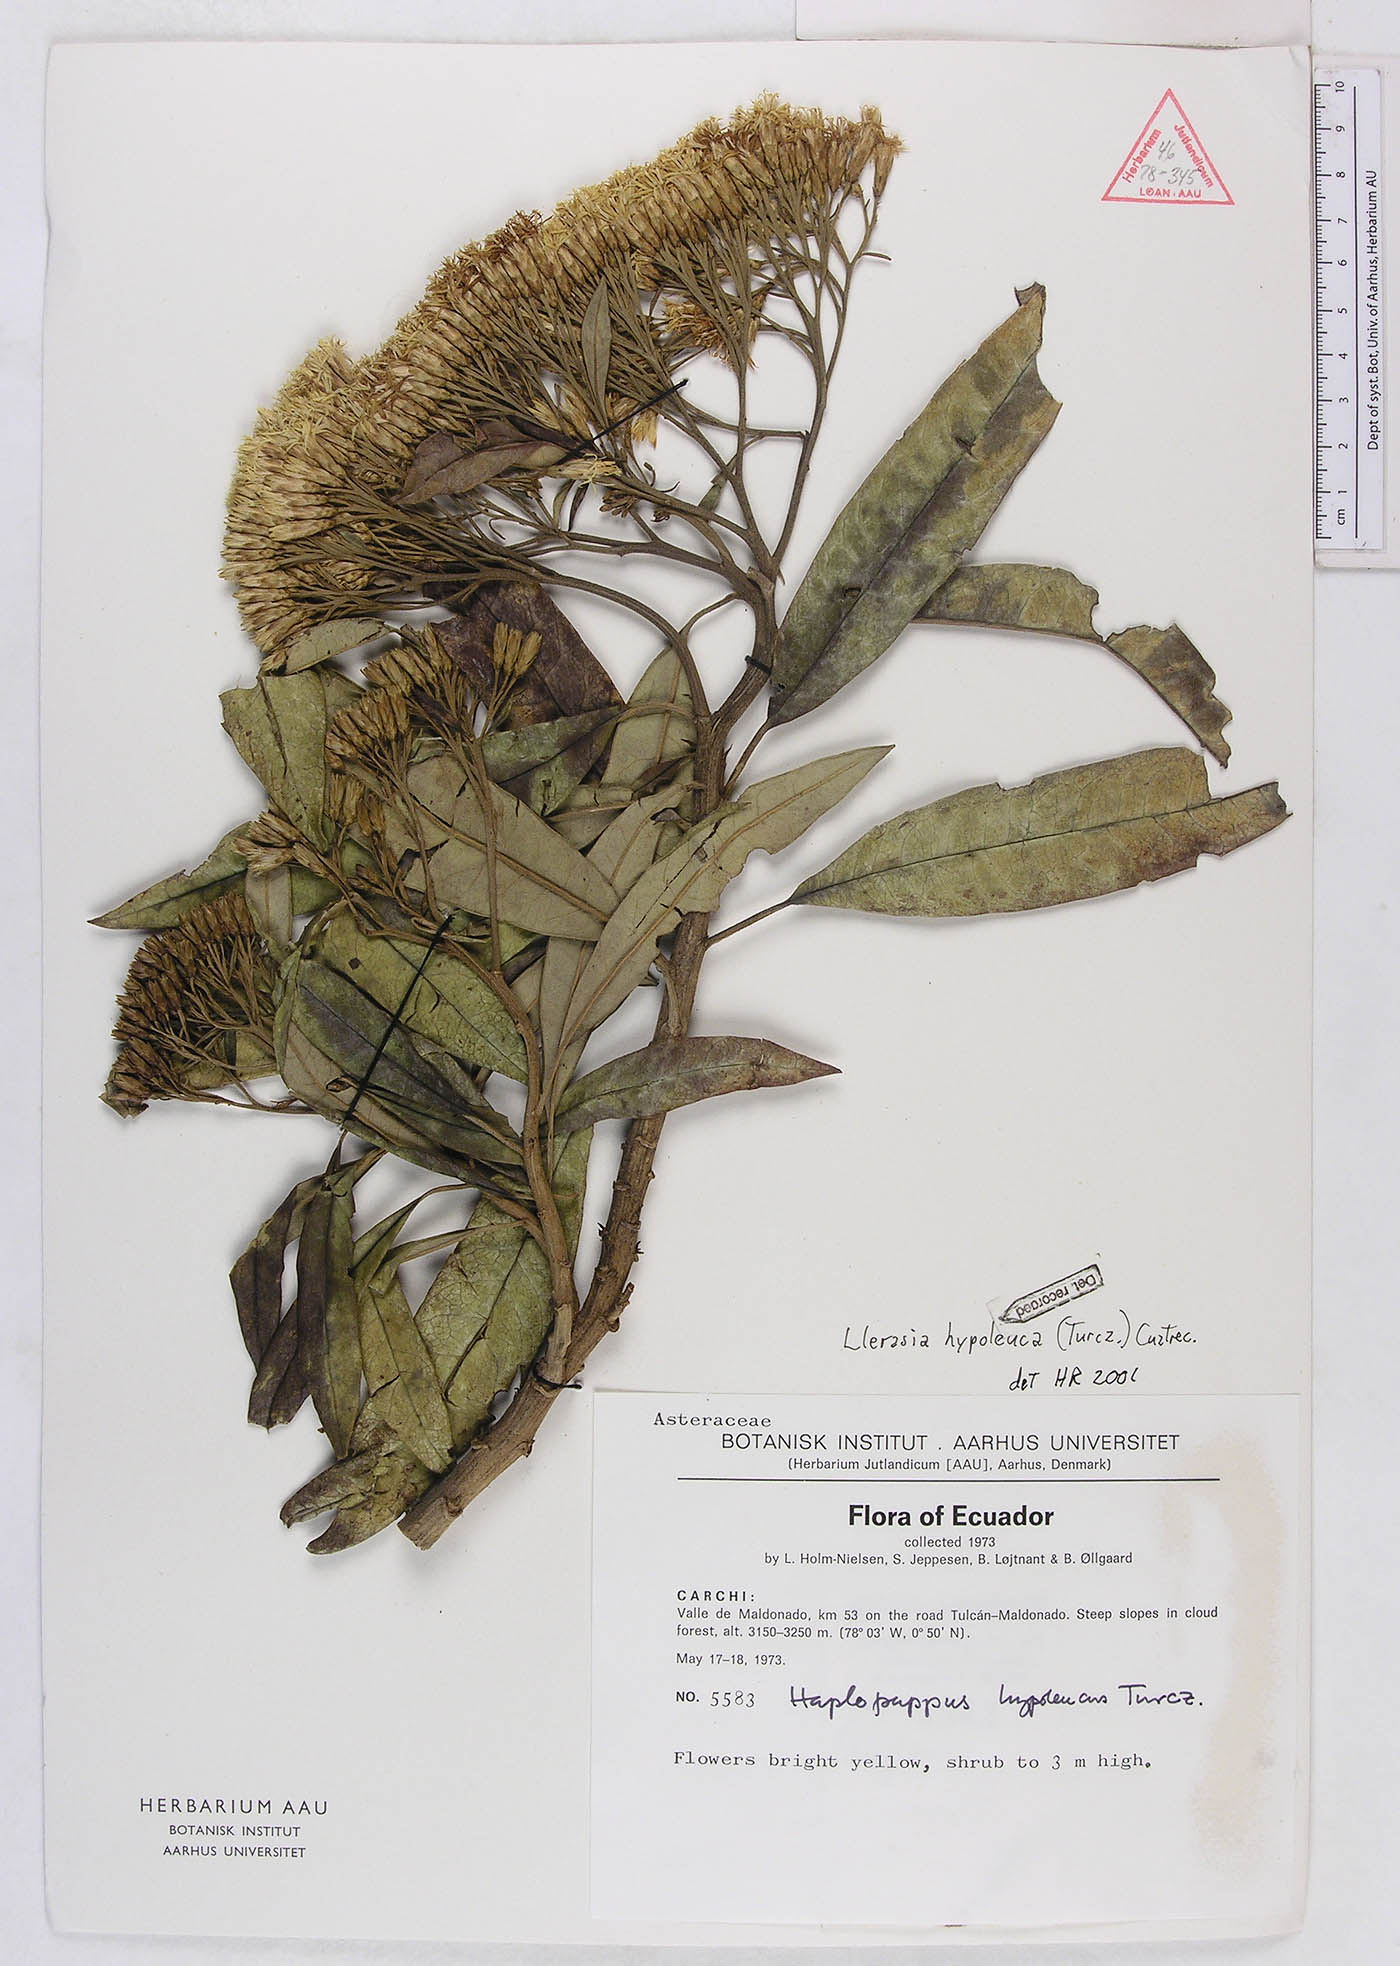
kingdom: Plantae
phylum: Tracheophyta
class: Magnoliopsida
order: Asterales
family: Asteraceae
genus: Llerasia
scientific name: Llerasia hypoleuca
